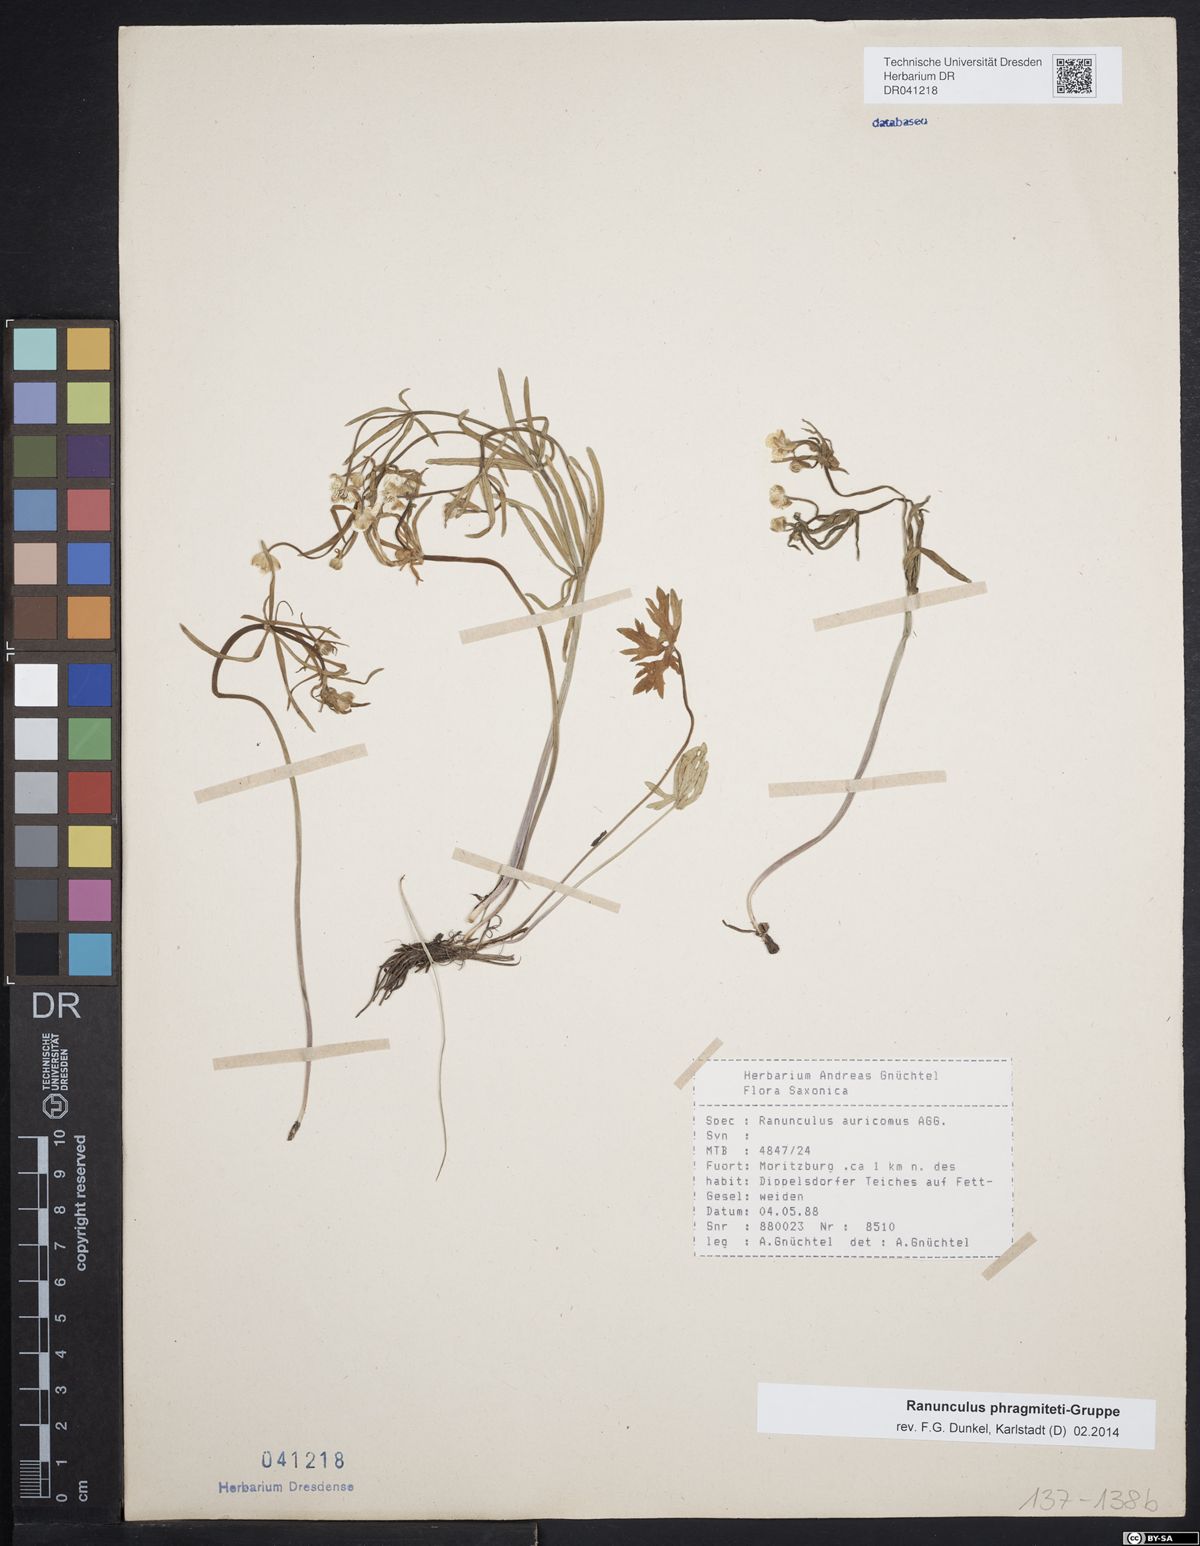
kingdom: Plantae
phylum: Tracheophyta
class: Magnoliopsida
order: Ranunculales
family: Ranunculaceae
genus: Ranunculus
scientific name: Ranunculus phragmiteti
